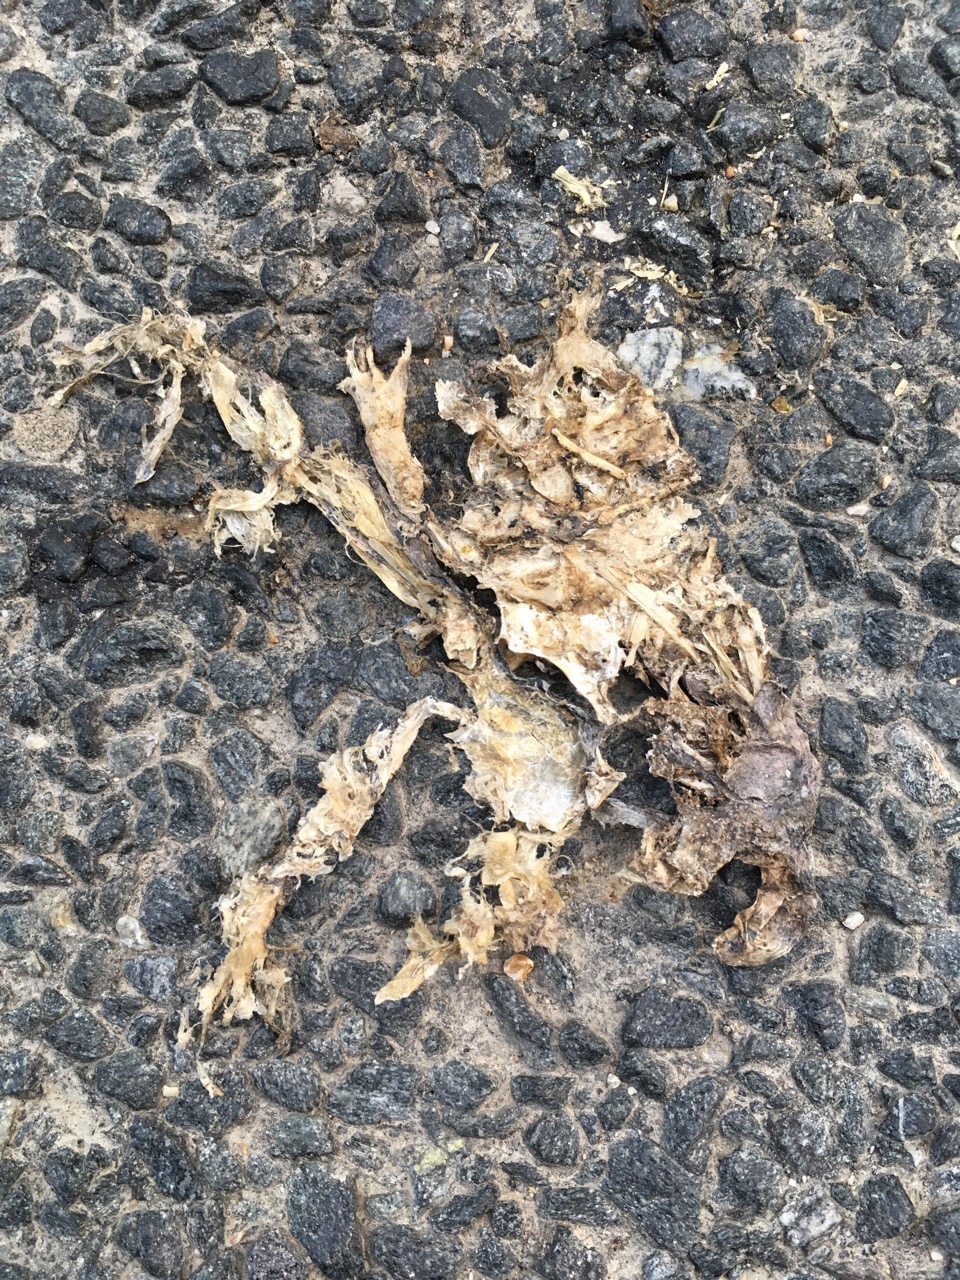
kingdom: Animalia
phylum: Chordata
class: Amphibia
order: Anura
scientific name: Anura
